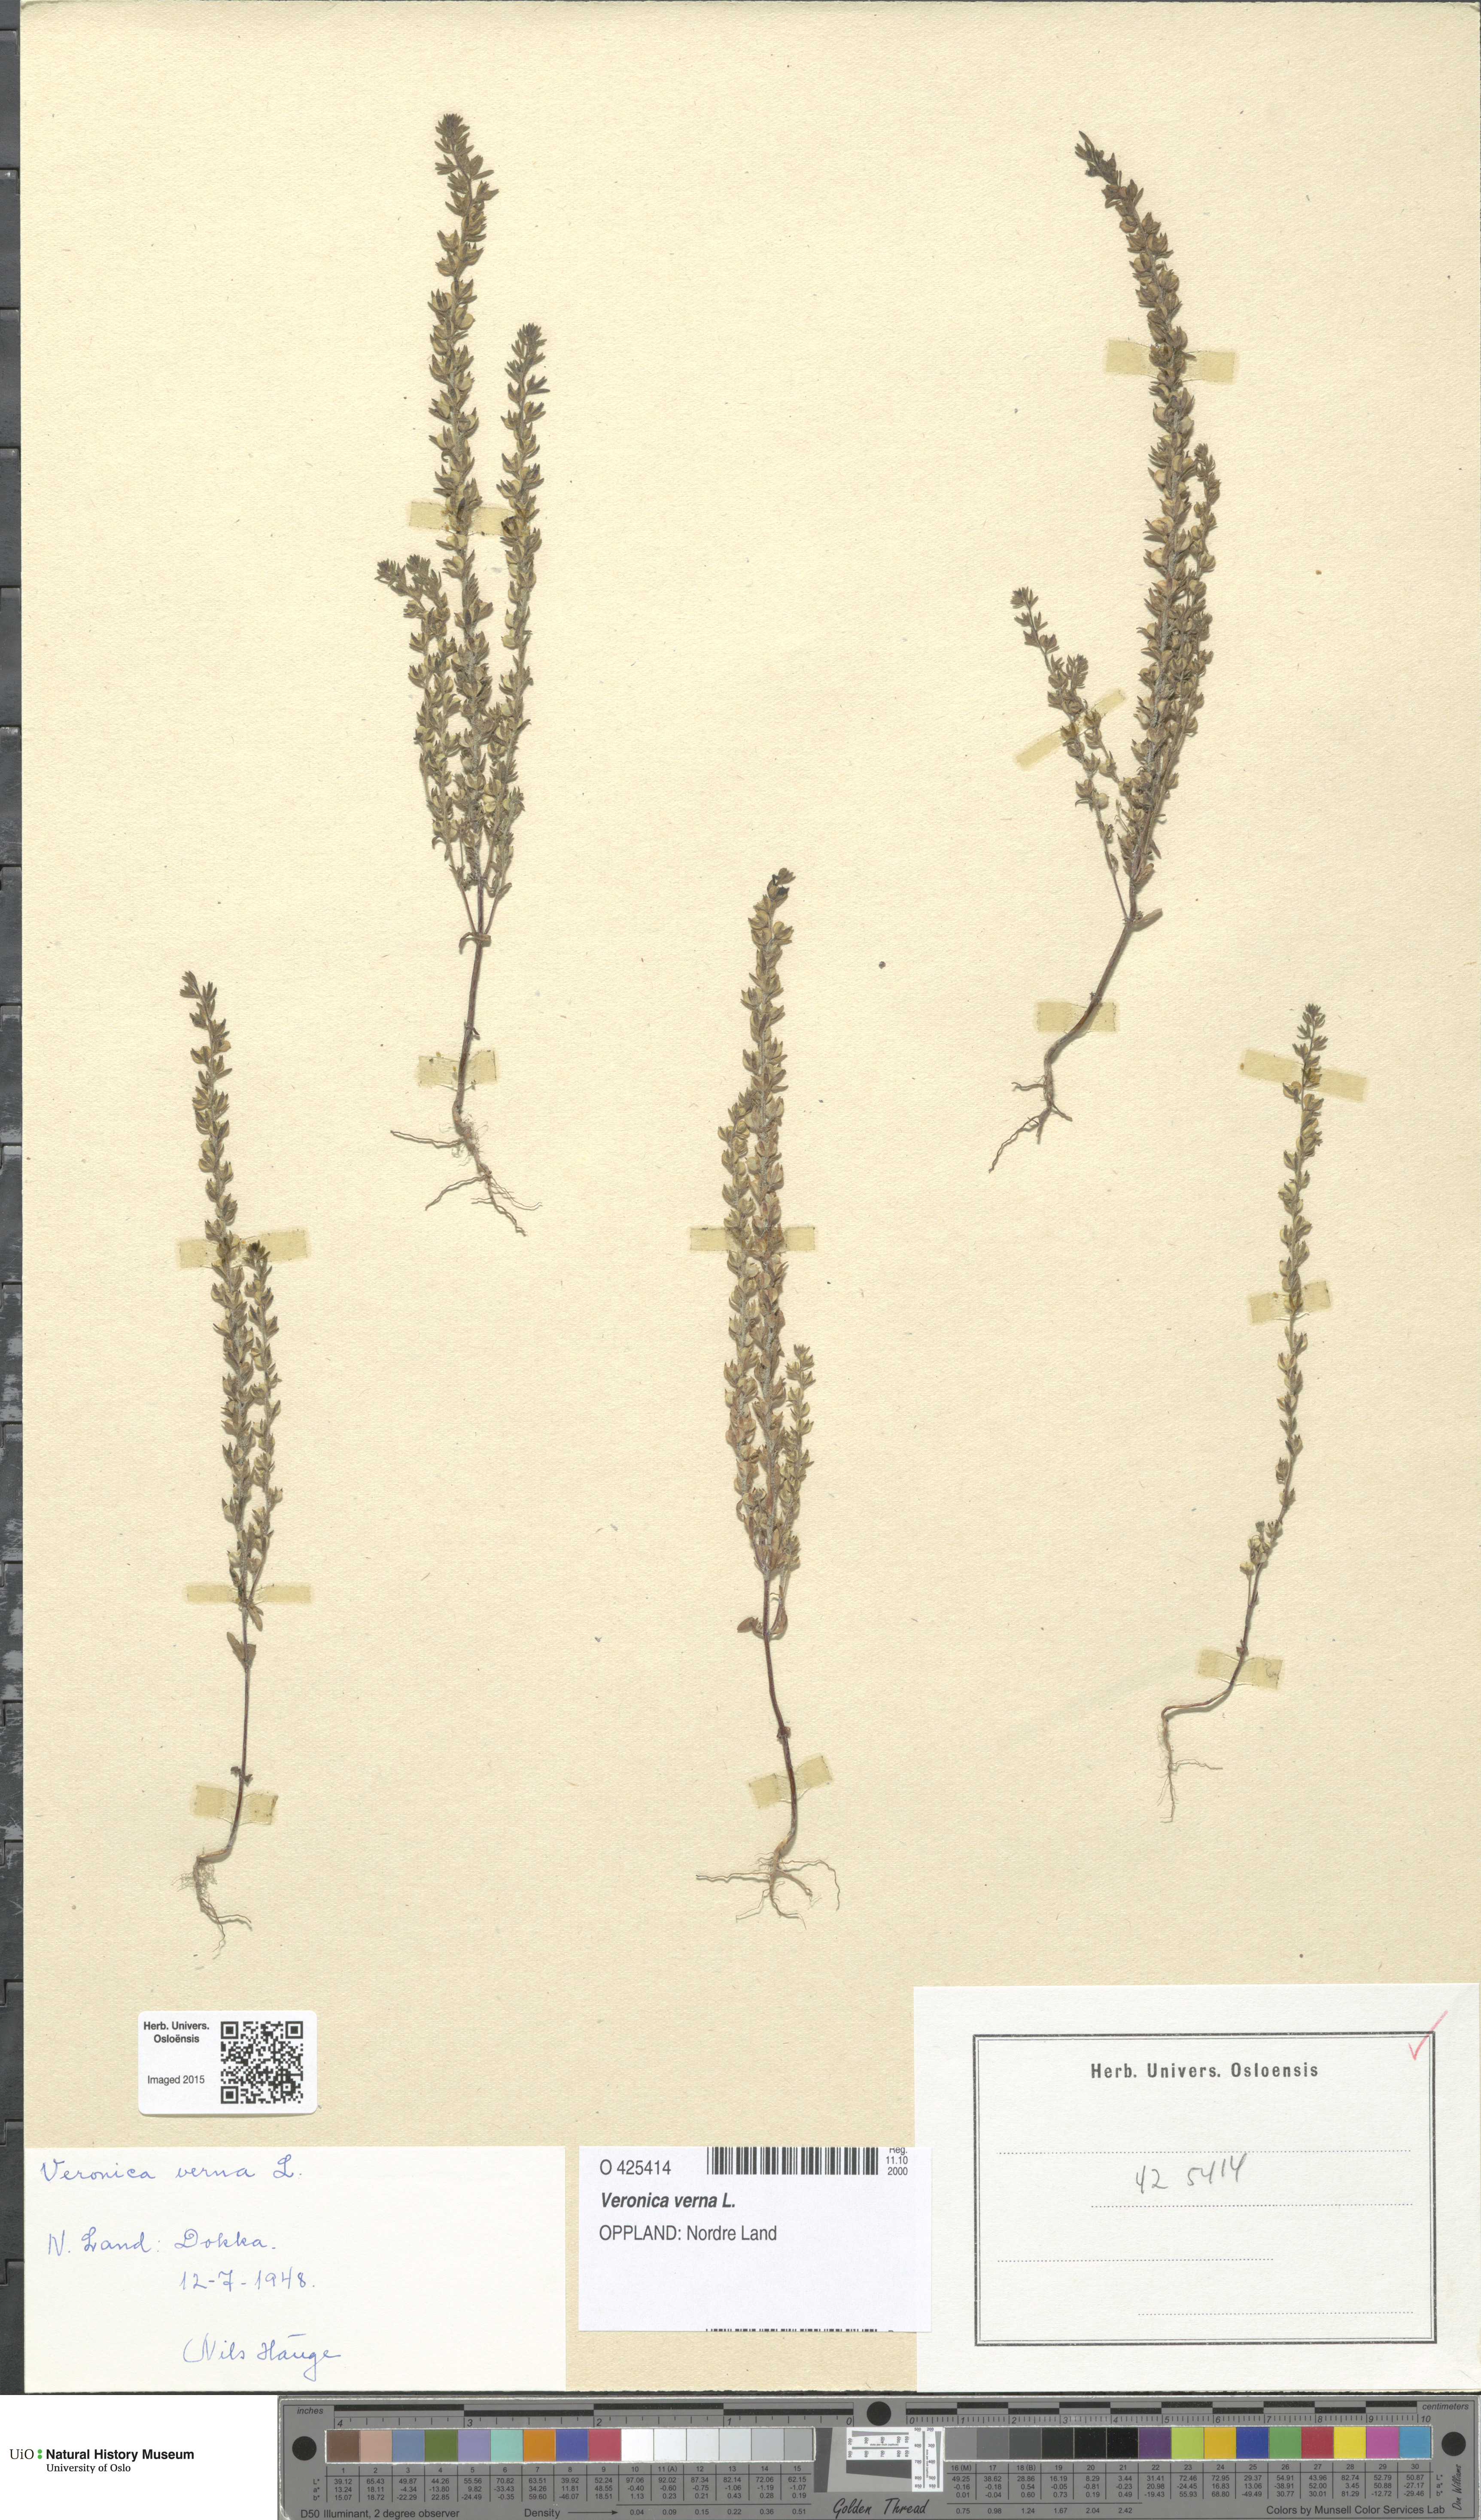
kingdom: Plantae
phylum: Tracheophyta
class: Magnoliopsida
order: Lamiales
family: Plantaginaceae
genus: Veronica
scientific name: Veronica verna
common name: Spring speedwell
